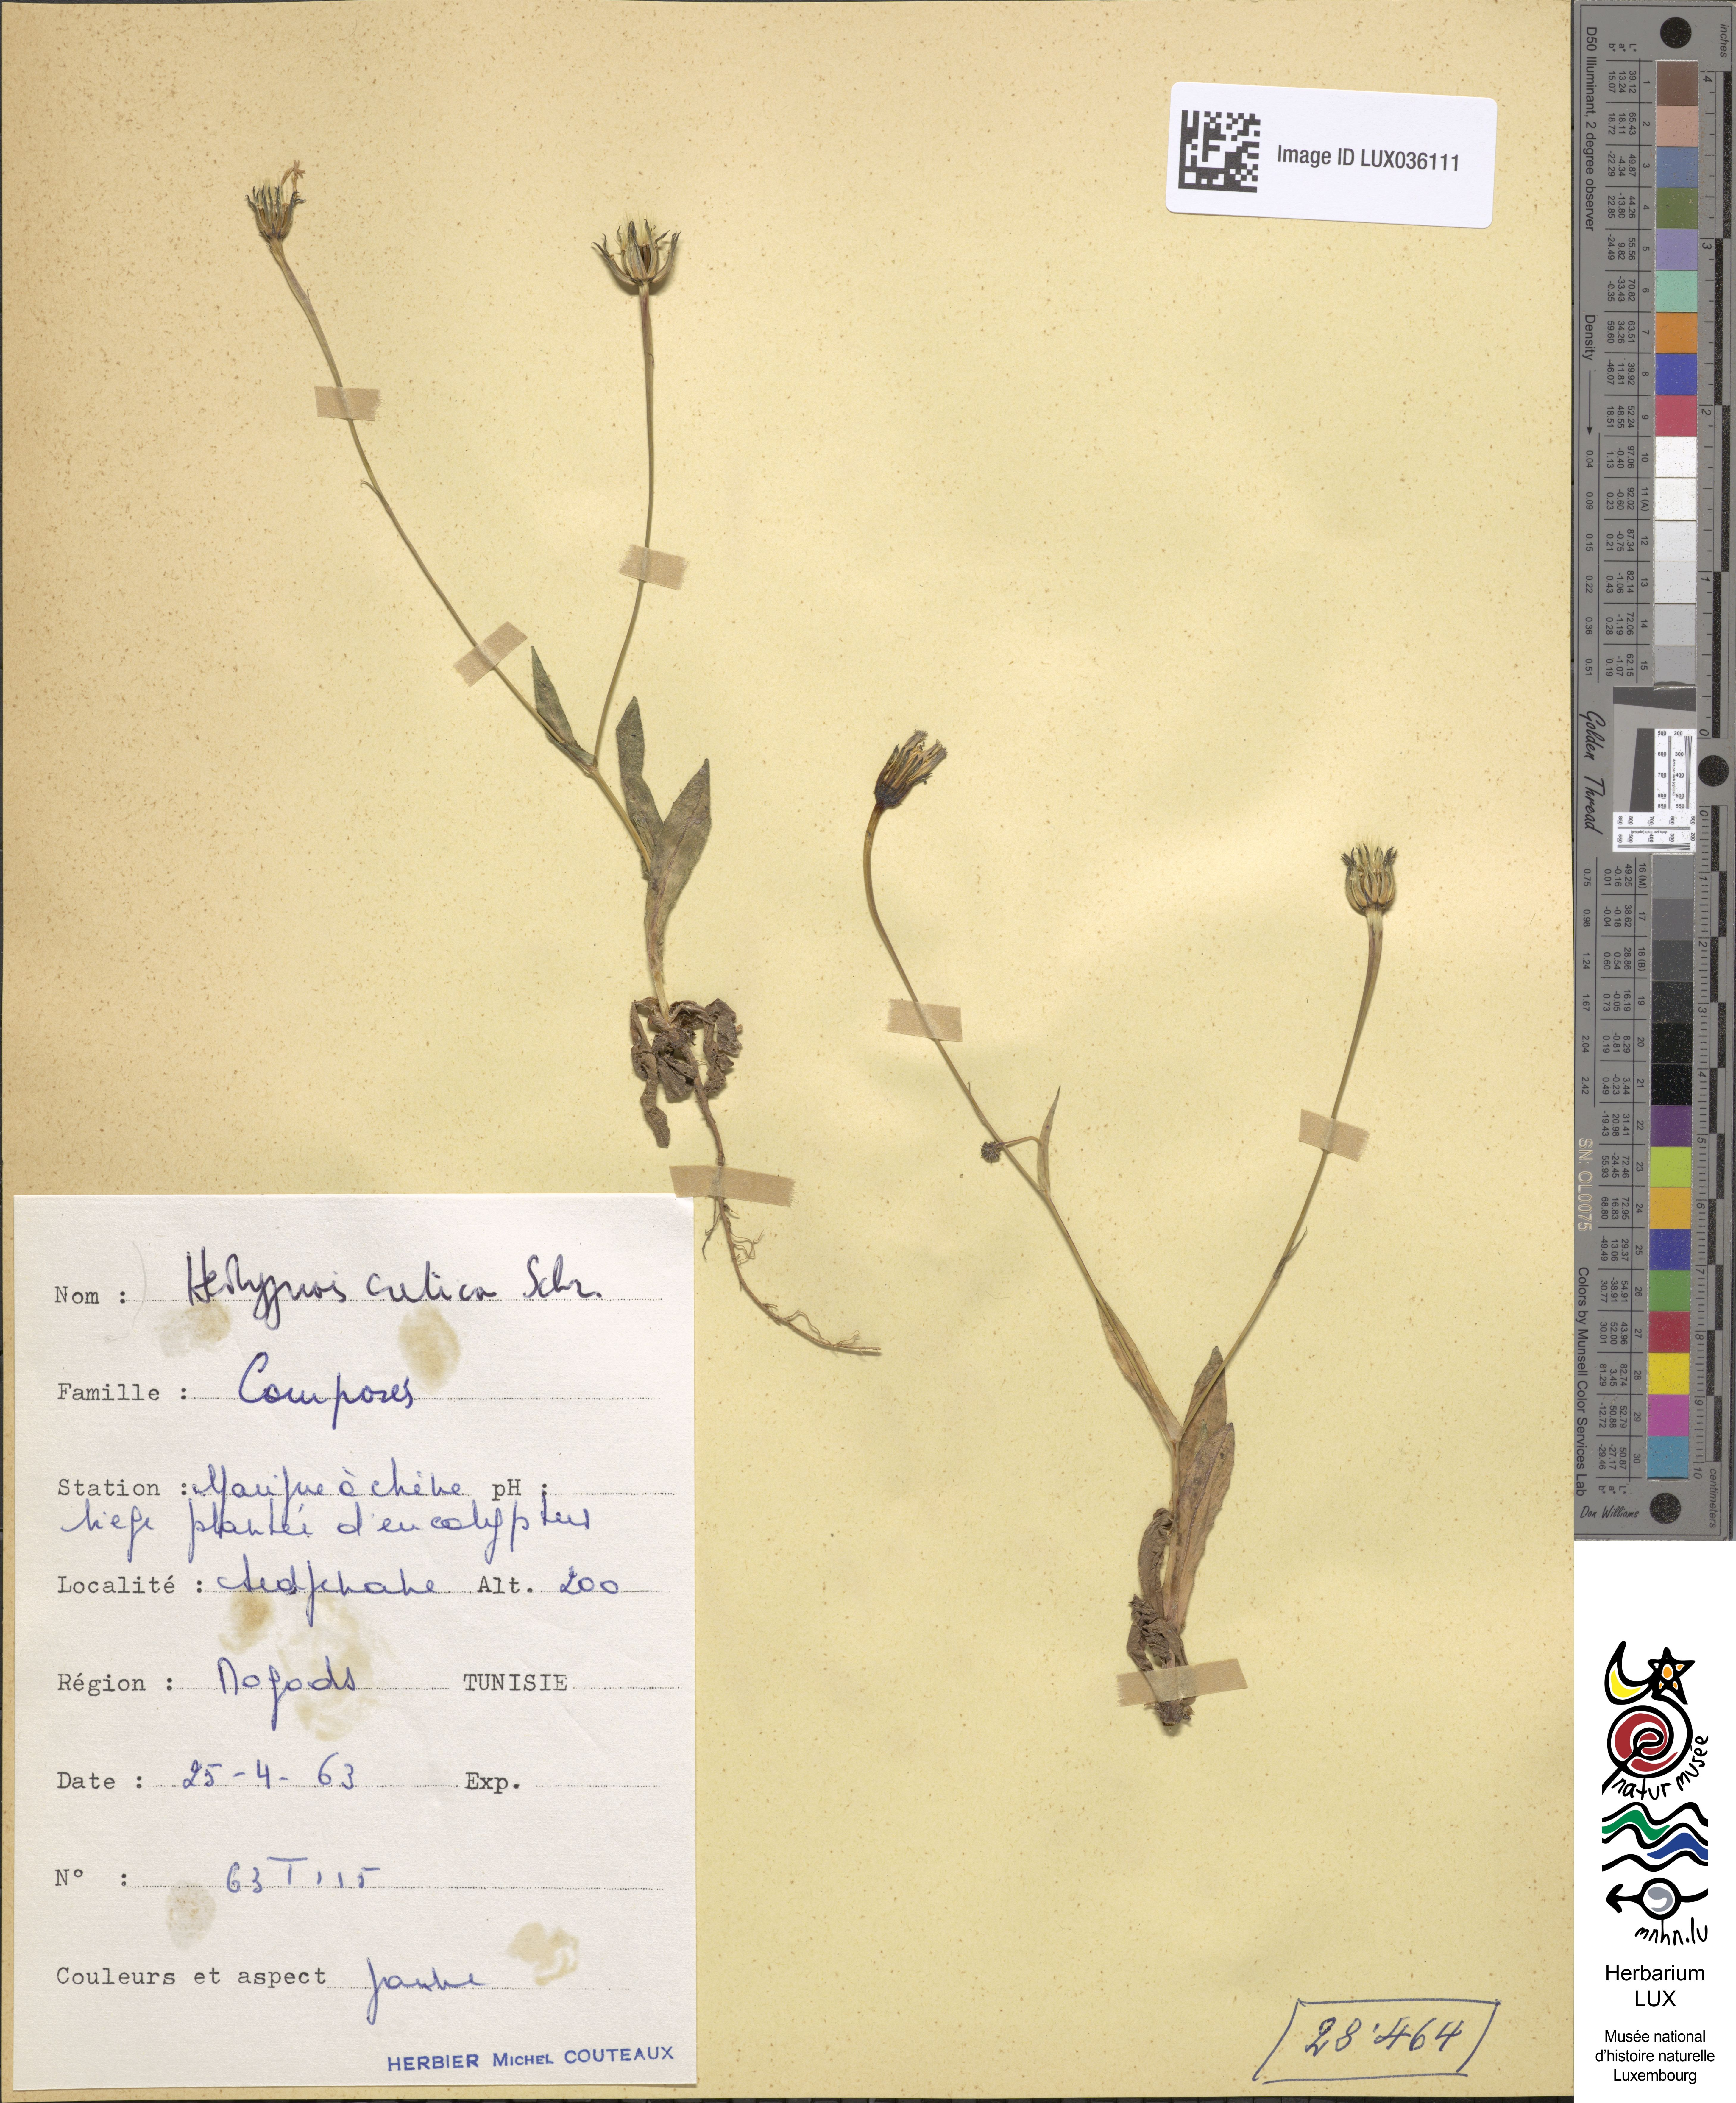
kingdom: Plantae
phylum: Tracheophyta
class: Magnoliopsida
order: Asterales
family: Asteraceae
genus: Hedypnois
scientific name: Hedypnois cretica
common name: Scaly hawkbit
